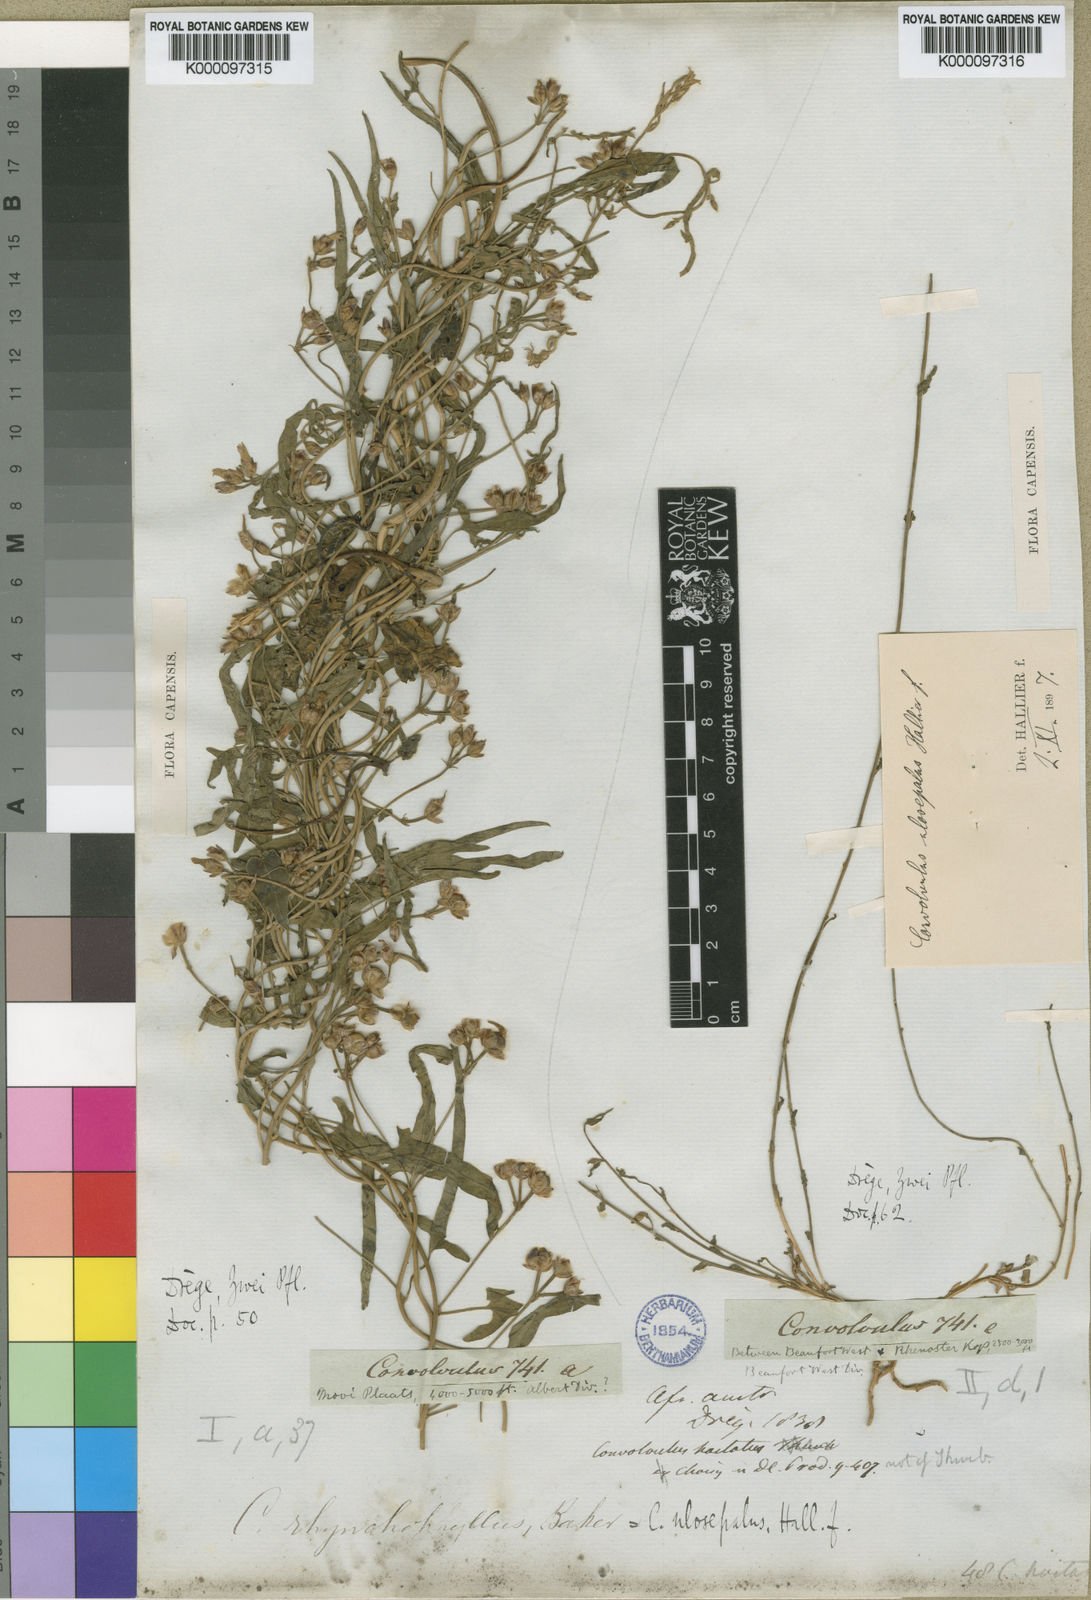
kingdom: Plantae
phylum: Tracheophyta
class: Magnoliopsida
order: Solanales
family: Convolvulaceae
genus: Convolvulus
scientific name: Convolvulus aschersonii
